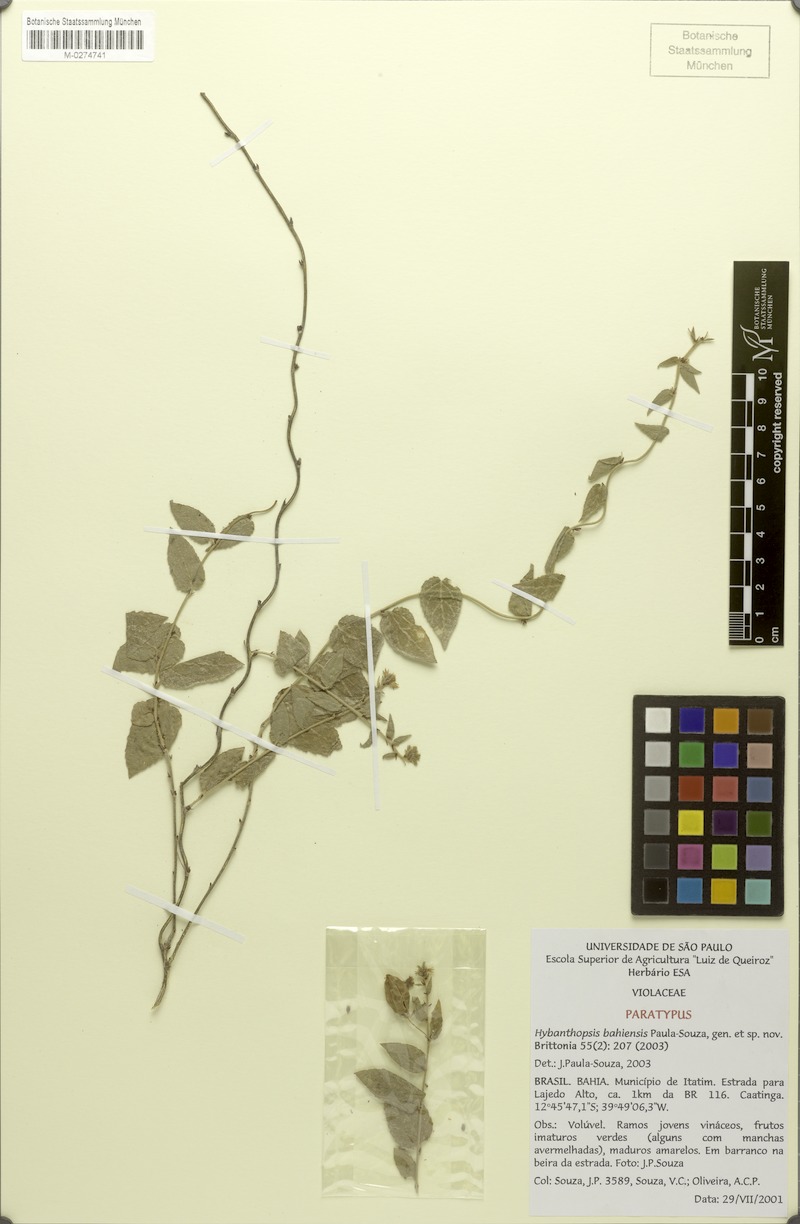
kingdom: Plantae
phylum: Tracheophyta
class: Magnoliopsida
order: Malpighiales
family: Violaceae
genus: Hybanthopsis
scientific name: Hybanthopsis bahiensis
